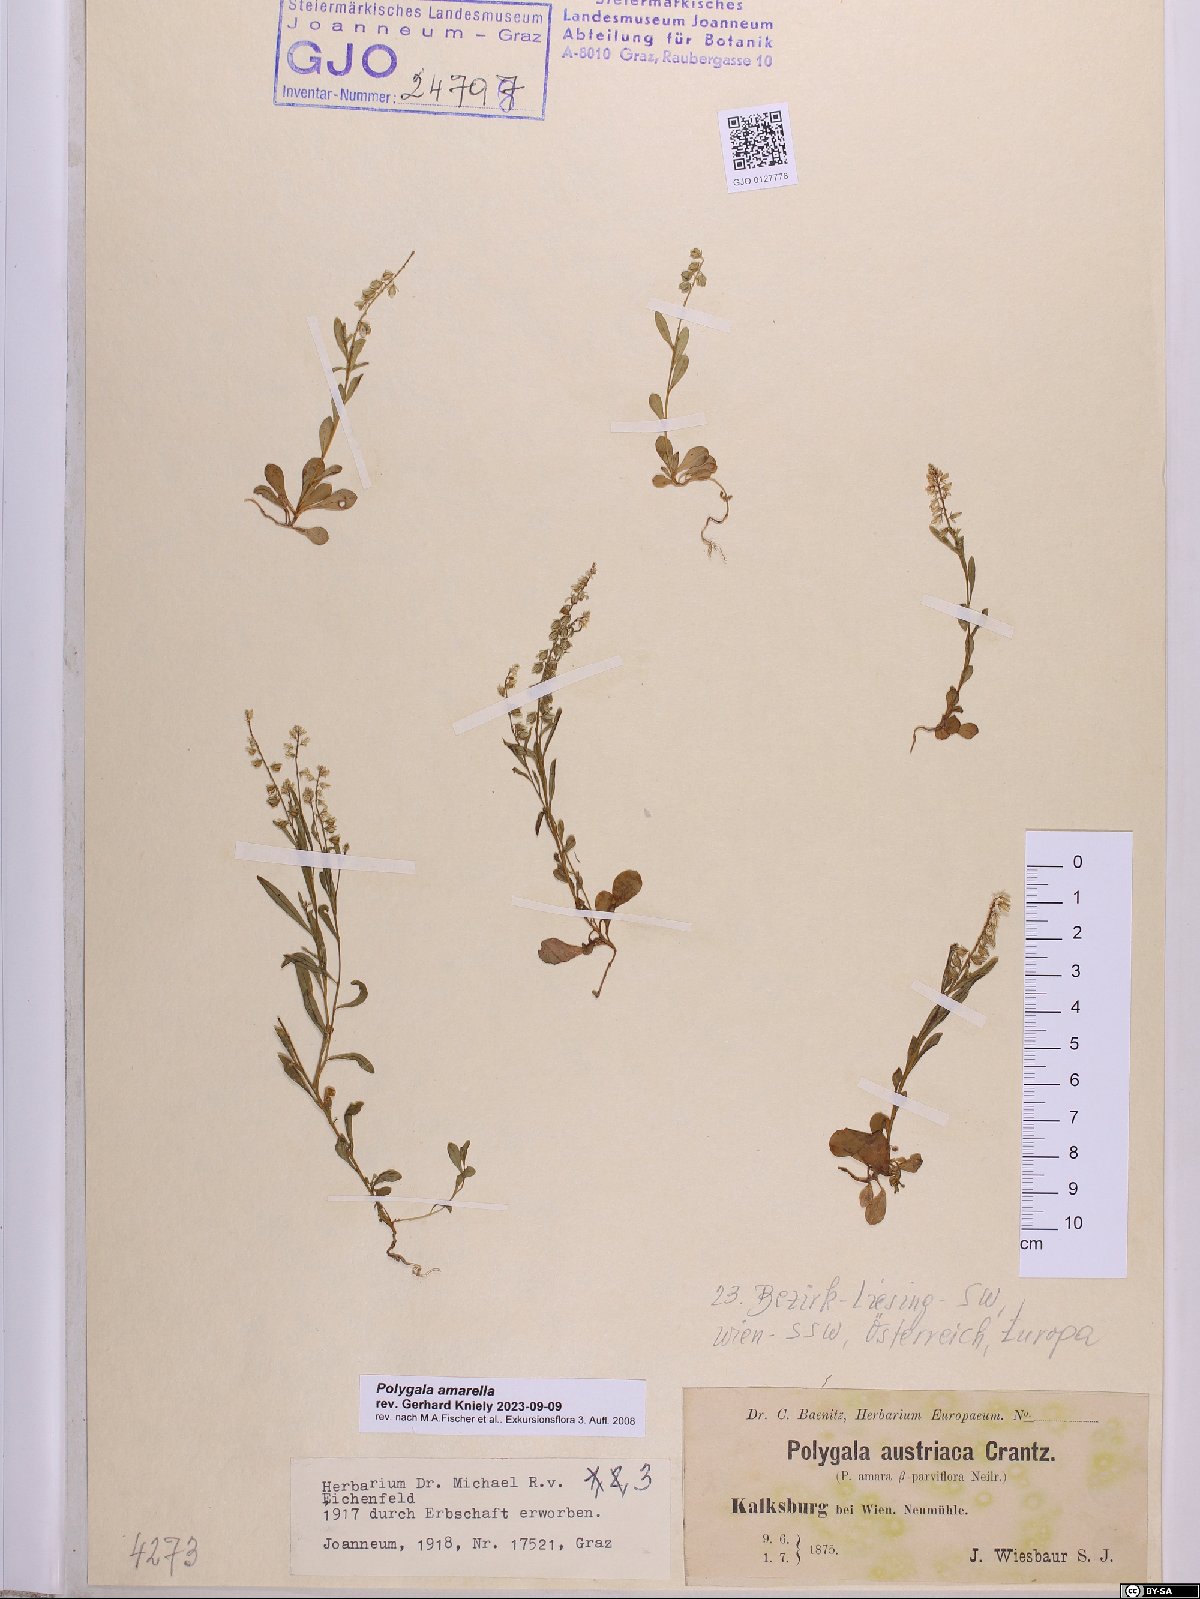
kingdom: Plantae
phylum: Tracheophyta
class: Magnoliopsida
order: Fabales
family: Polygalaceae
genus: Polygala
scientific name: Polygala amarella
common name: Dwarf milkwort
